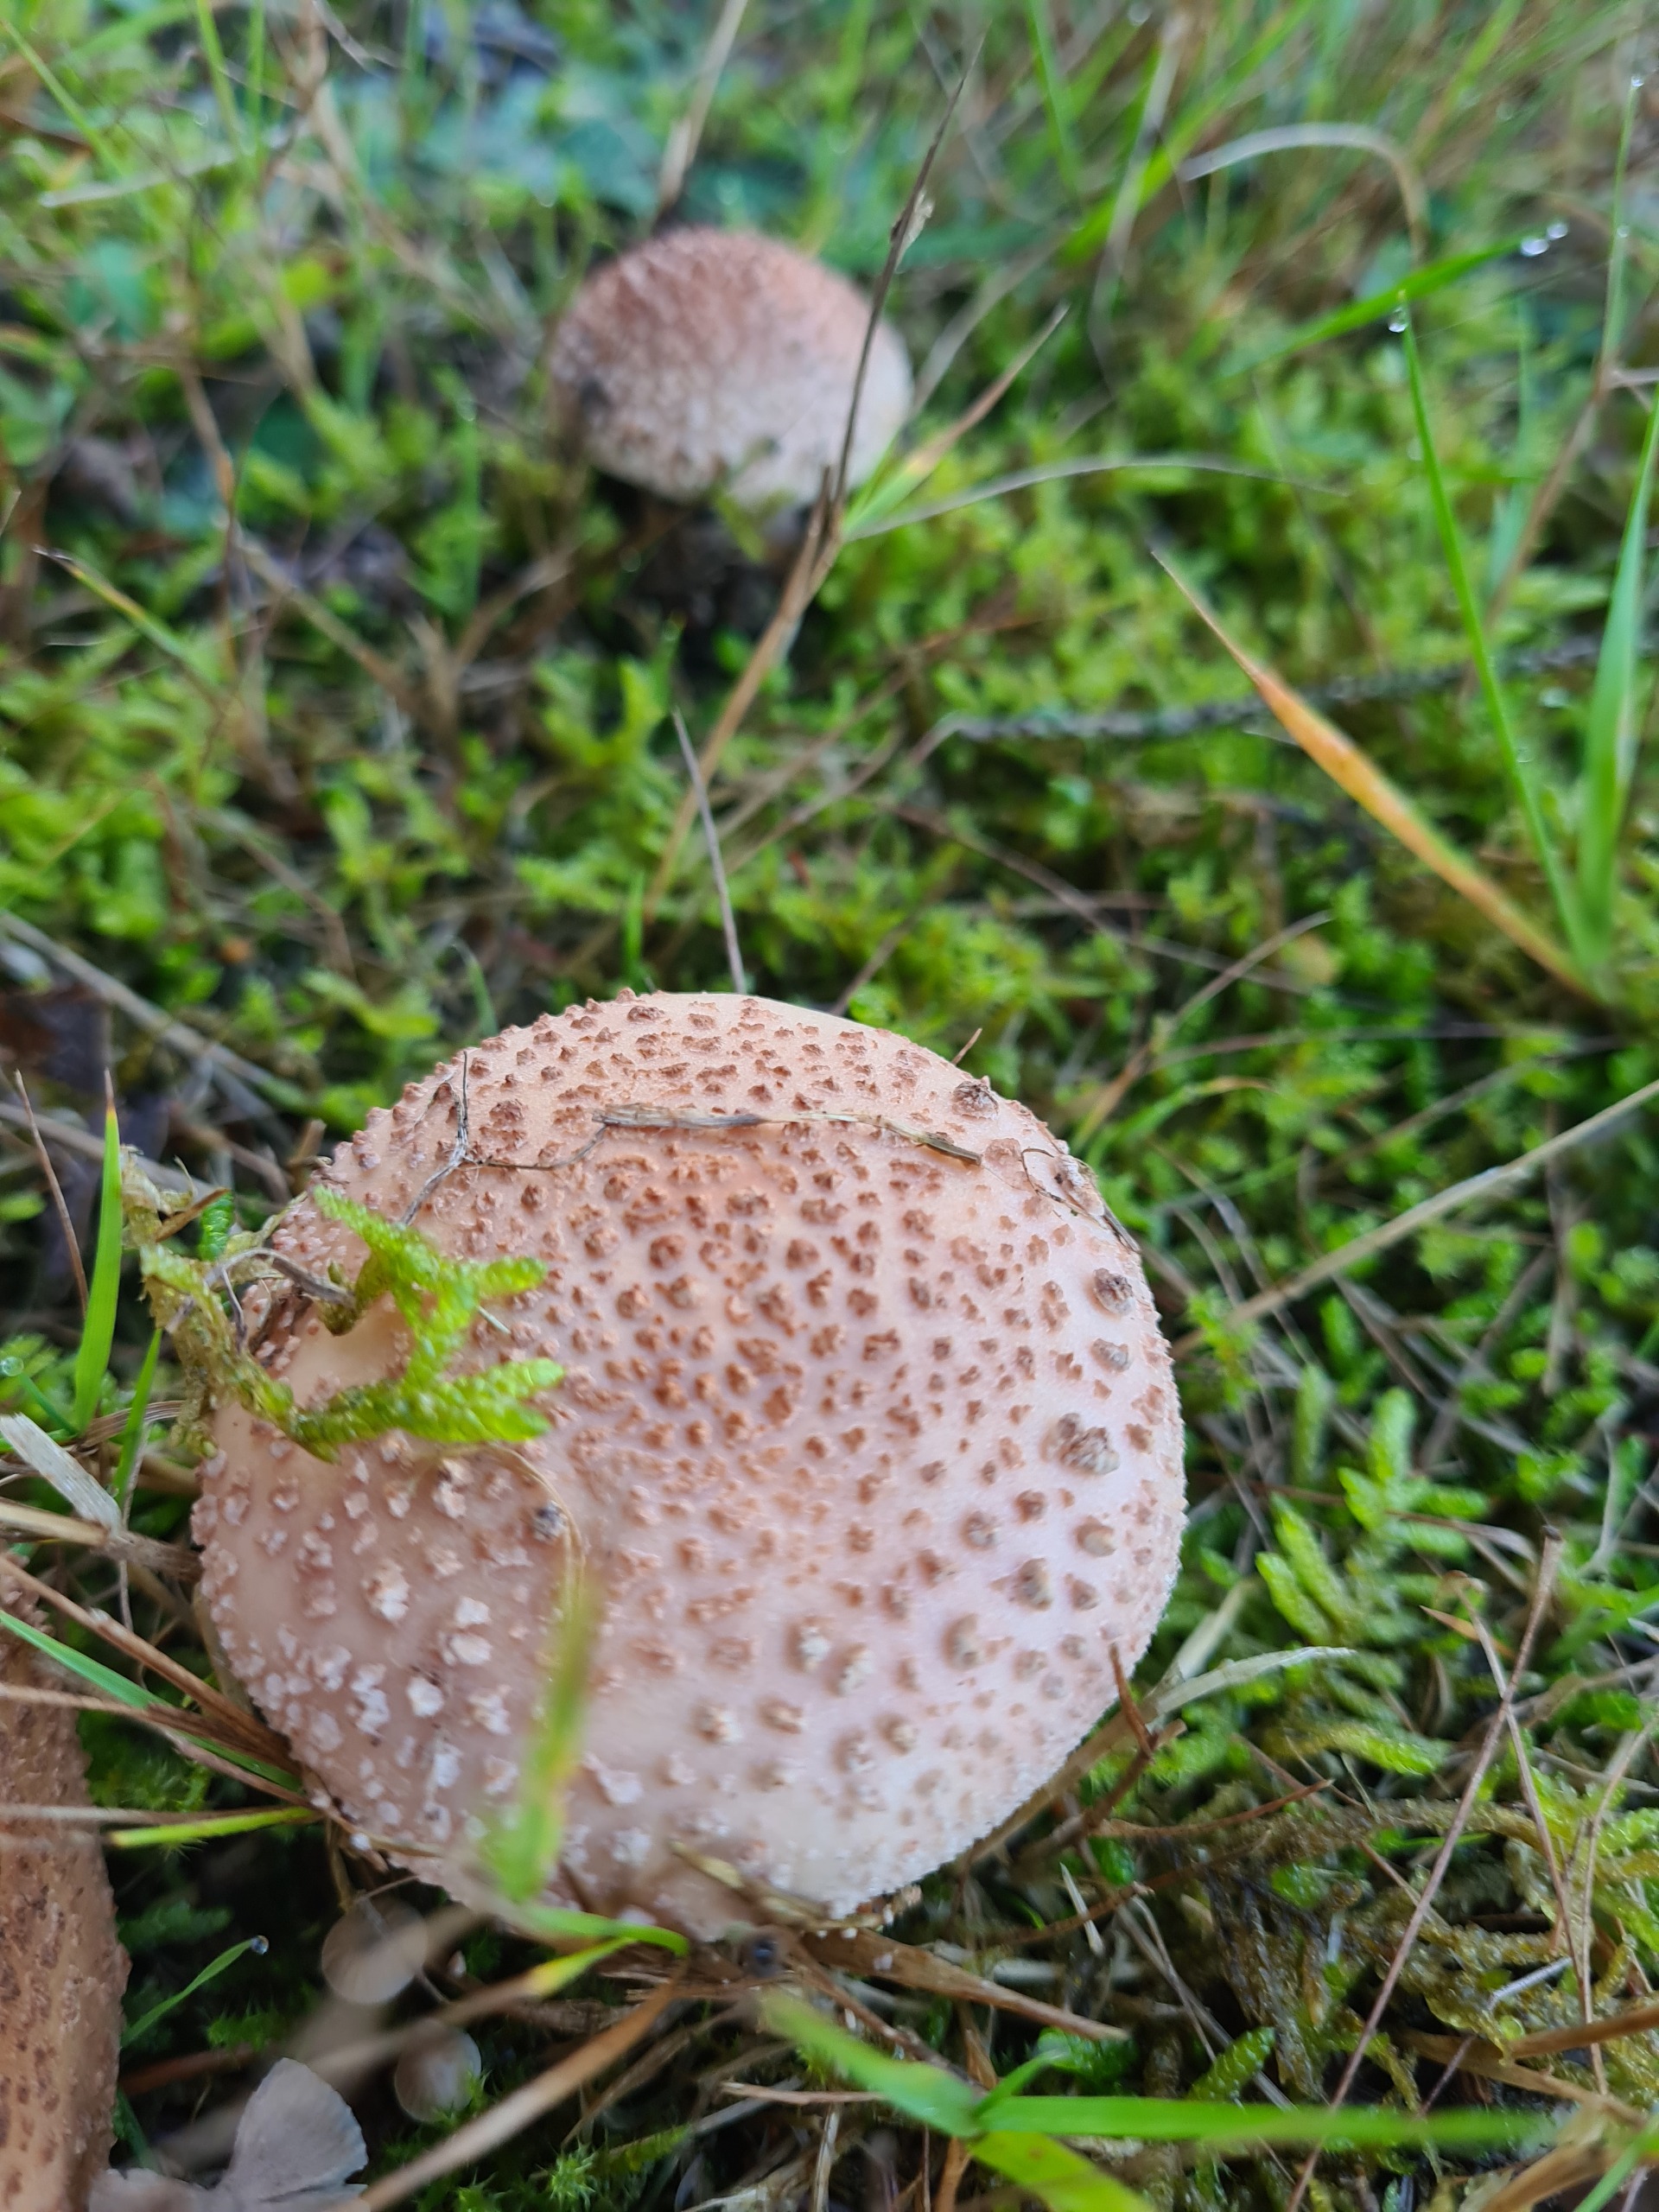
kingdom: Fungi
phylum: Basidiomycota
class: Agaricomycetes
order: Agaricales
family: Amanitaceae
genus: Amanita
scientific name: Amanita rubescens
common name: Rødmende fluesvamp
